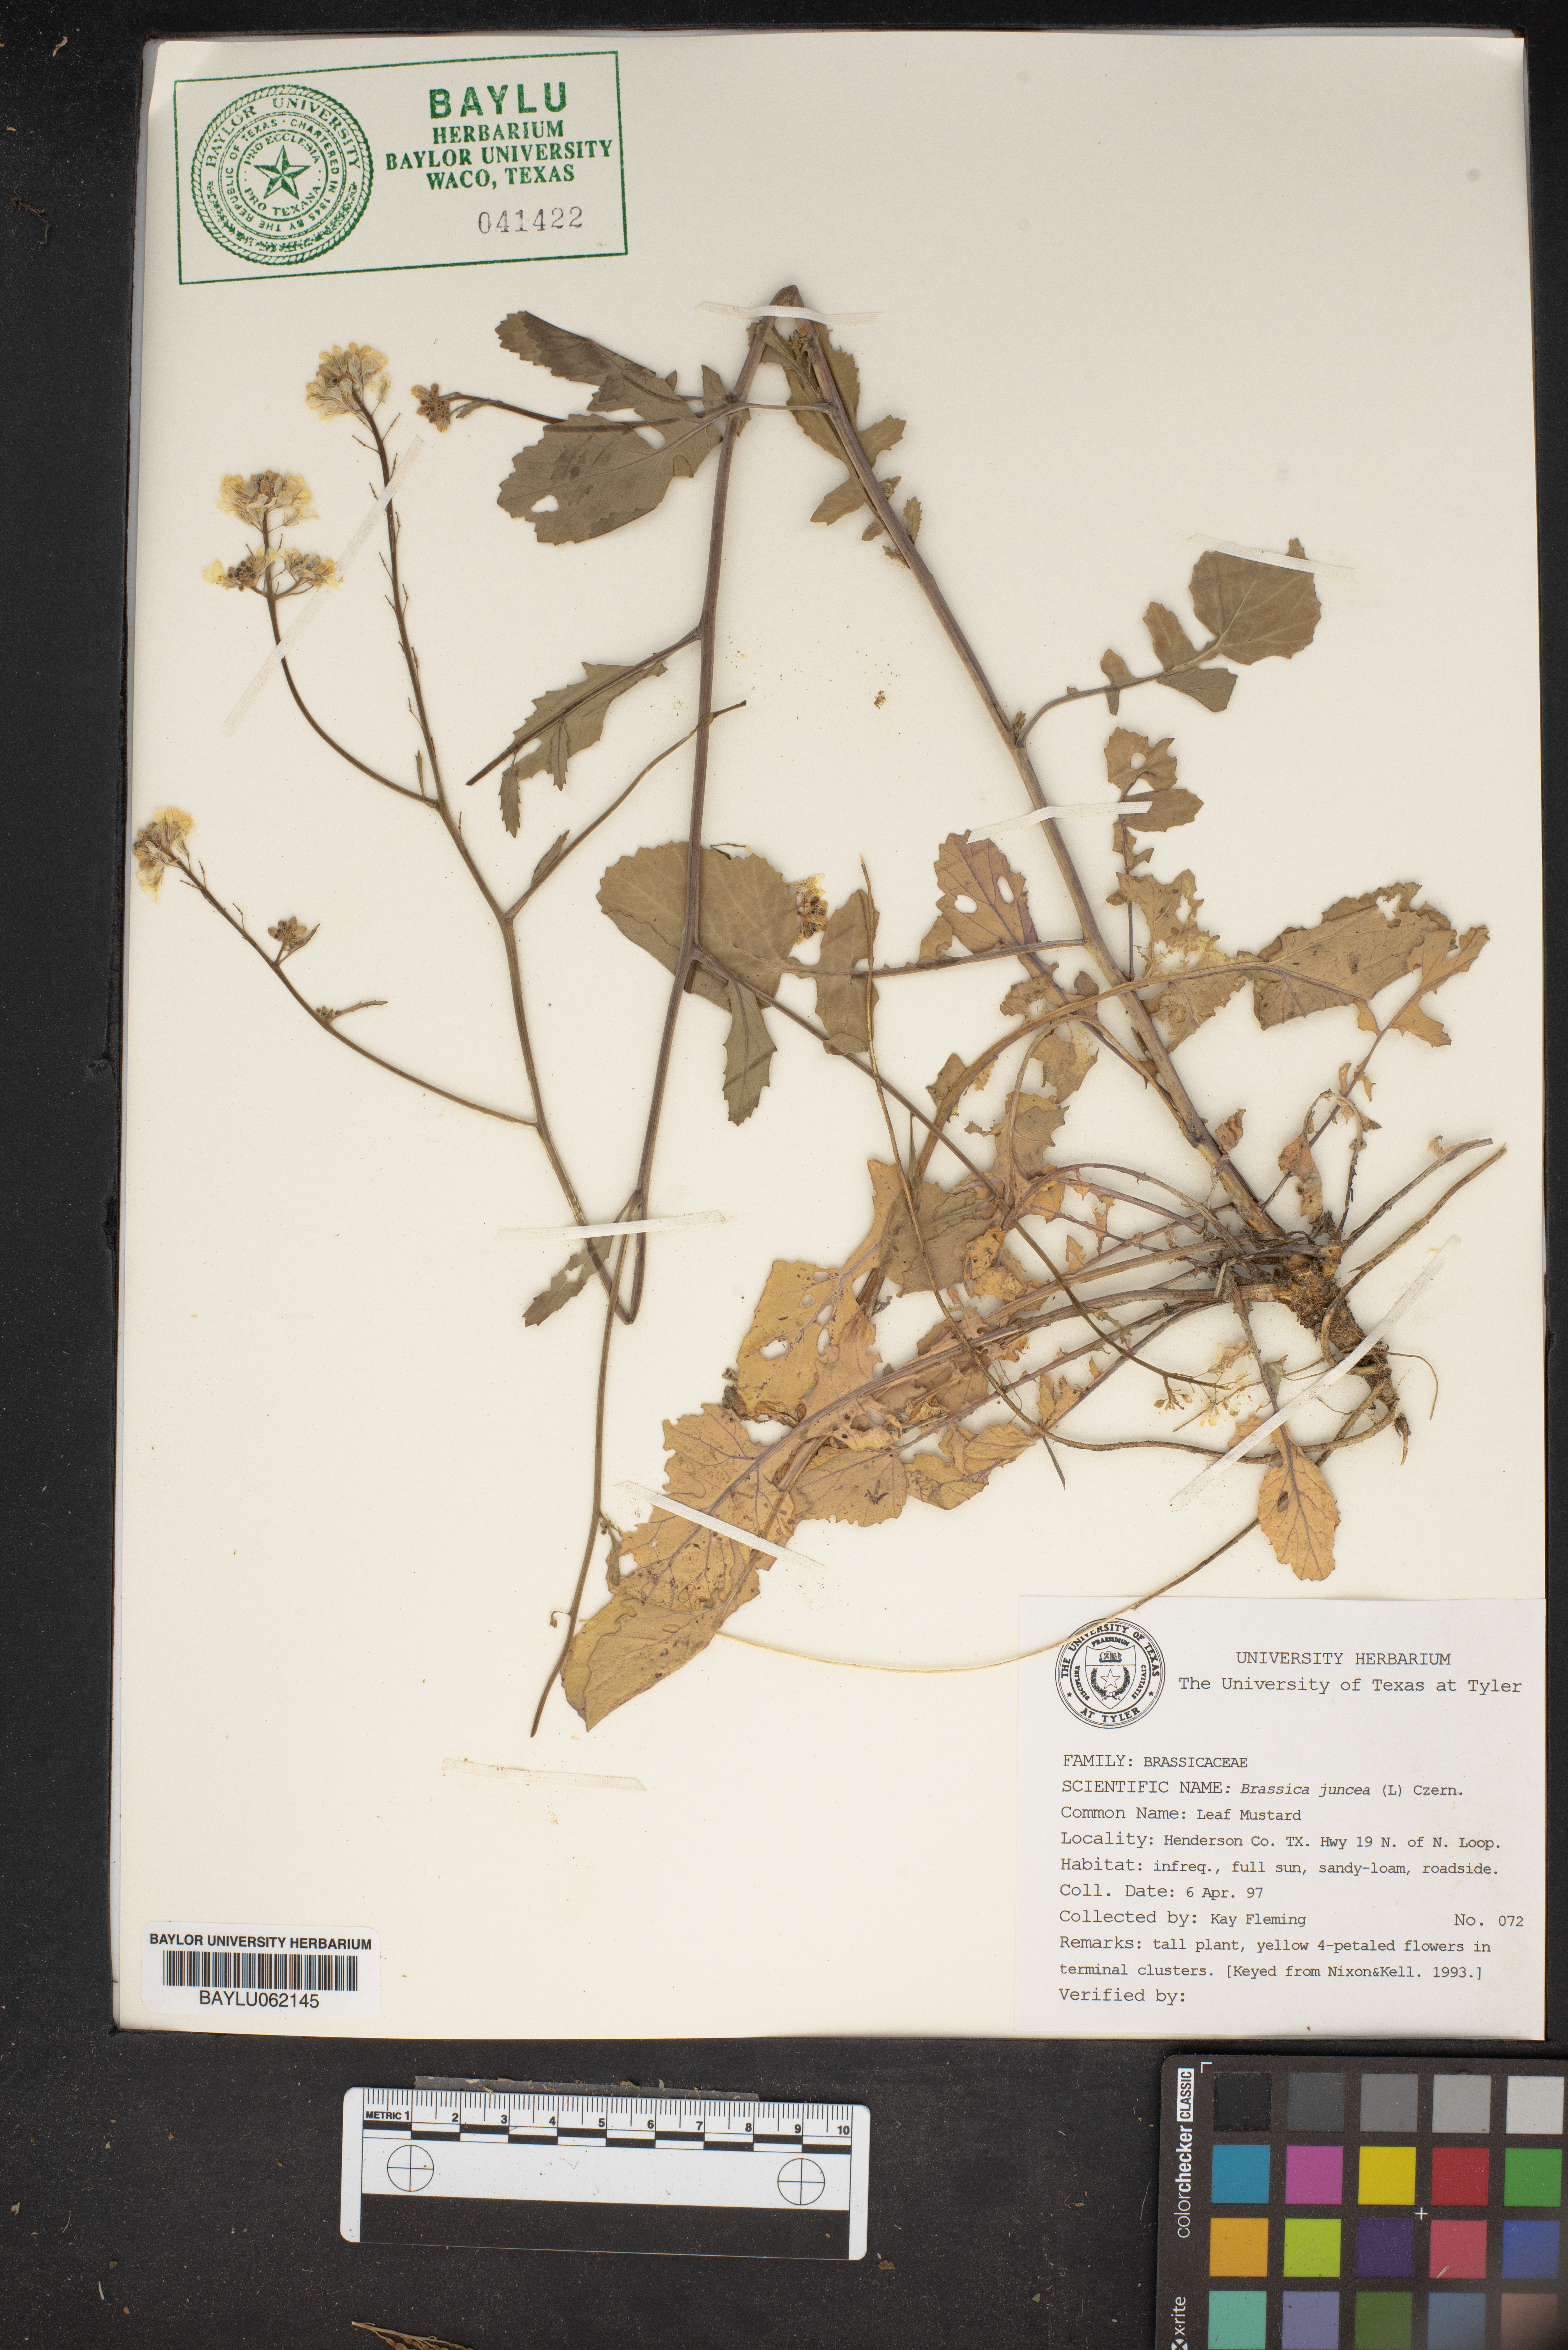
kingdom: Plantae
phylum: Tracheophyta
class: Magnoliopsida
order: Brassicales
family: Brassicaceae
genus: Brassica
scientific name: Brassica juncea
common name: Brown mustard
